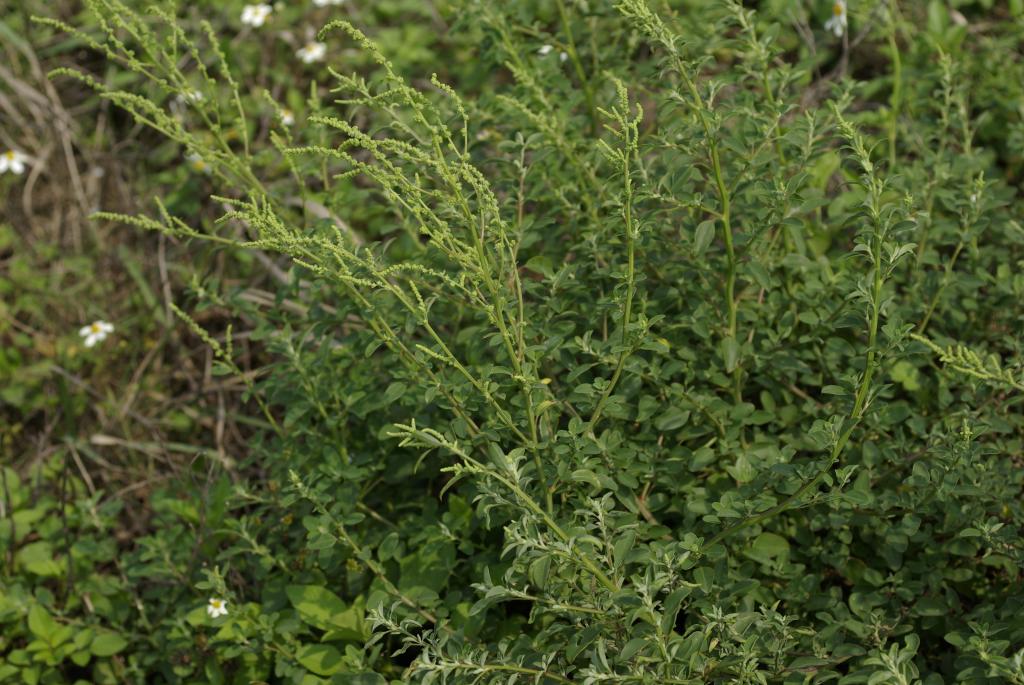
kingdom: Plantae
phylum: Tracheophyta
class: Magnoliopsida
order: Caryophyllales
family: Amaranthaceae
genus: Chenopodium
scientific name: Chenopodium acuminatum
